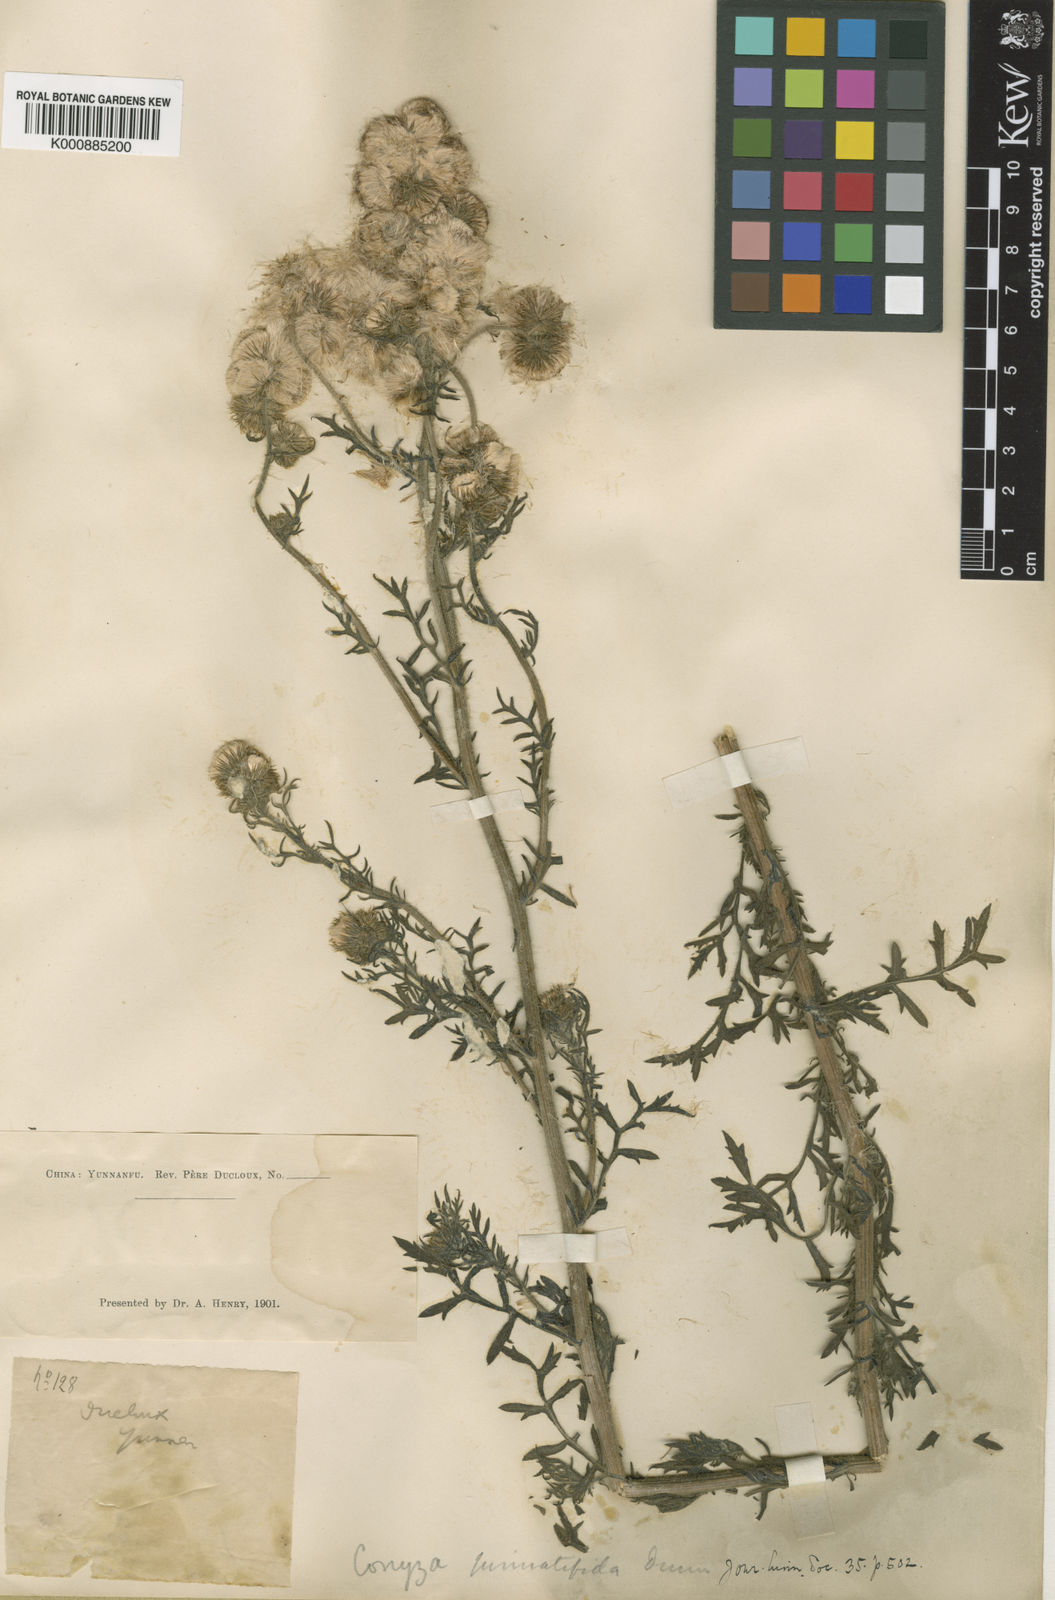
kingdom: Plantae
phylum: Tracheophyta
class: Magnoliopsida
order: Asterales
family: Asteraceae
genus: Nidorella
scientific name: Nidorella pinnatifida
